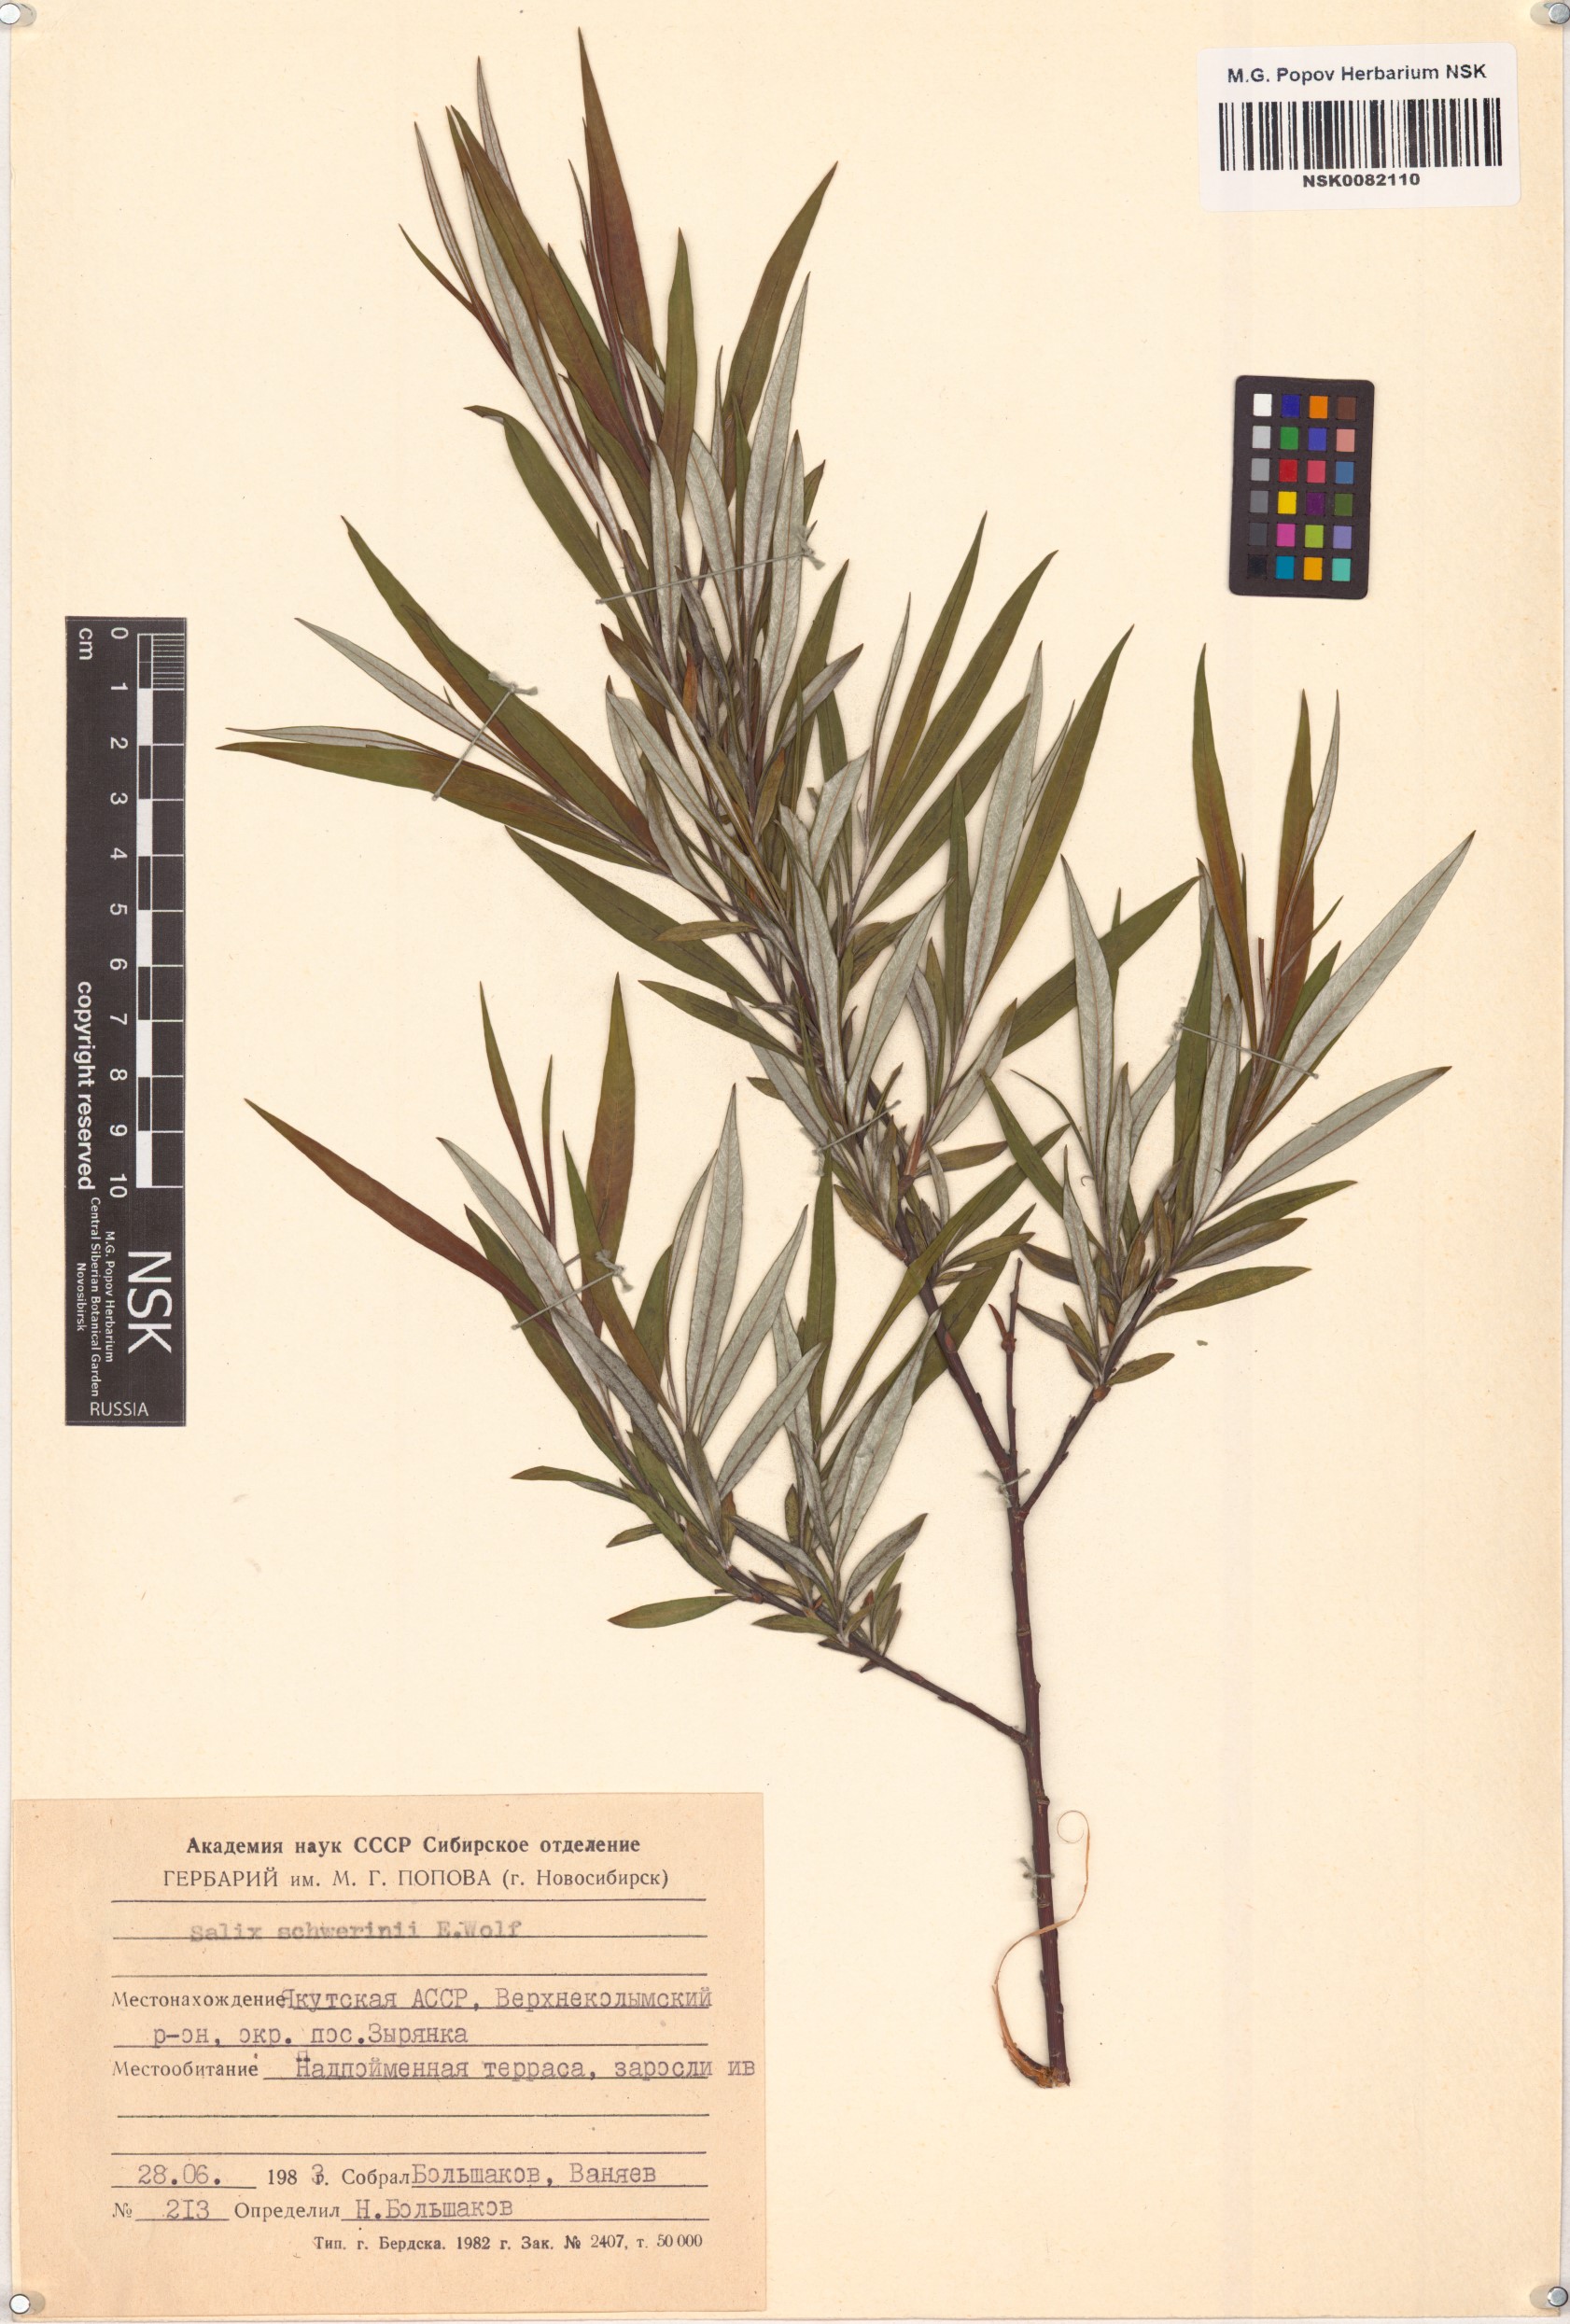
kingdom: Plantae
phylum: Tracheophyta
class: Magnoliopsida
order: Malpighiales
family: Salicaceae
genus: Salix
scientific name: Salix schwerinii
